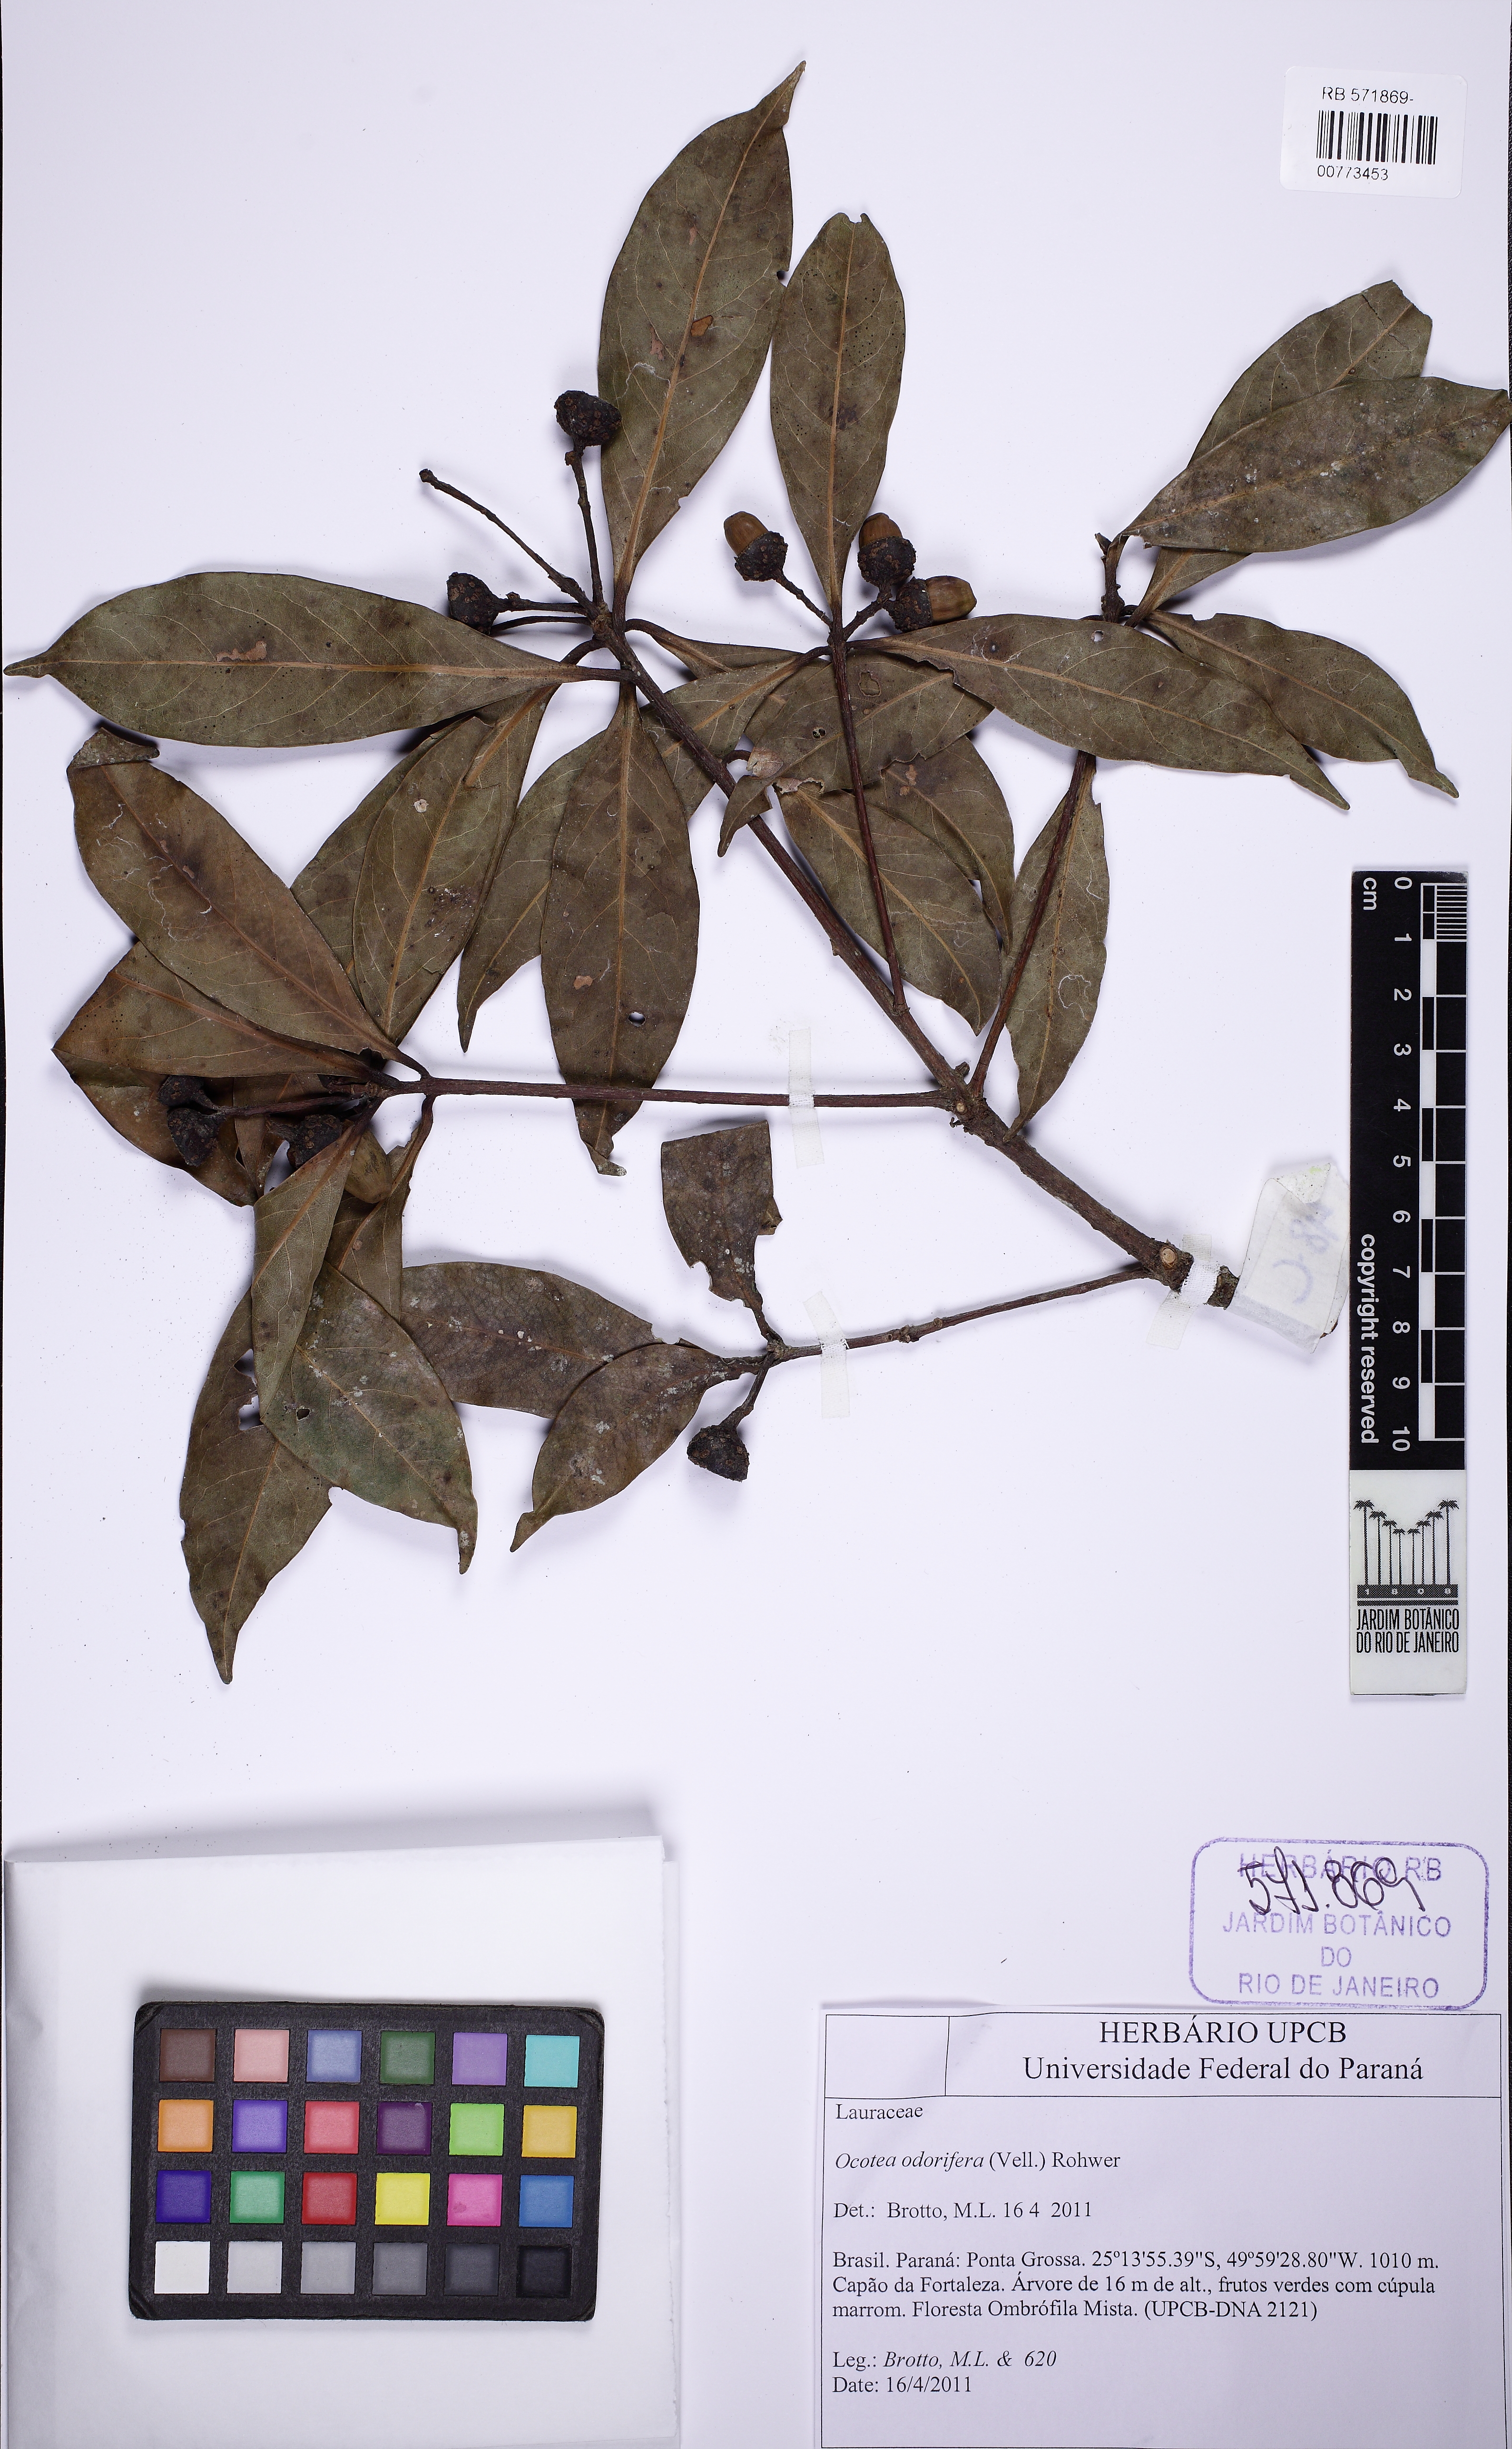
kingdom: Plantae
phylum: Tracheophyta
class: Magnoliopsida
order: Laurales
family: Lauraceae
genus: Mespilodaphne
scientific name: Mespilodaphne quixos
